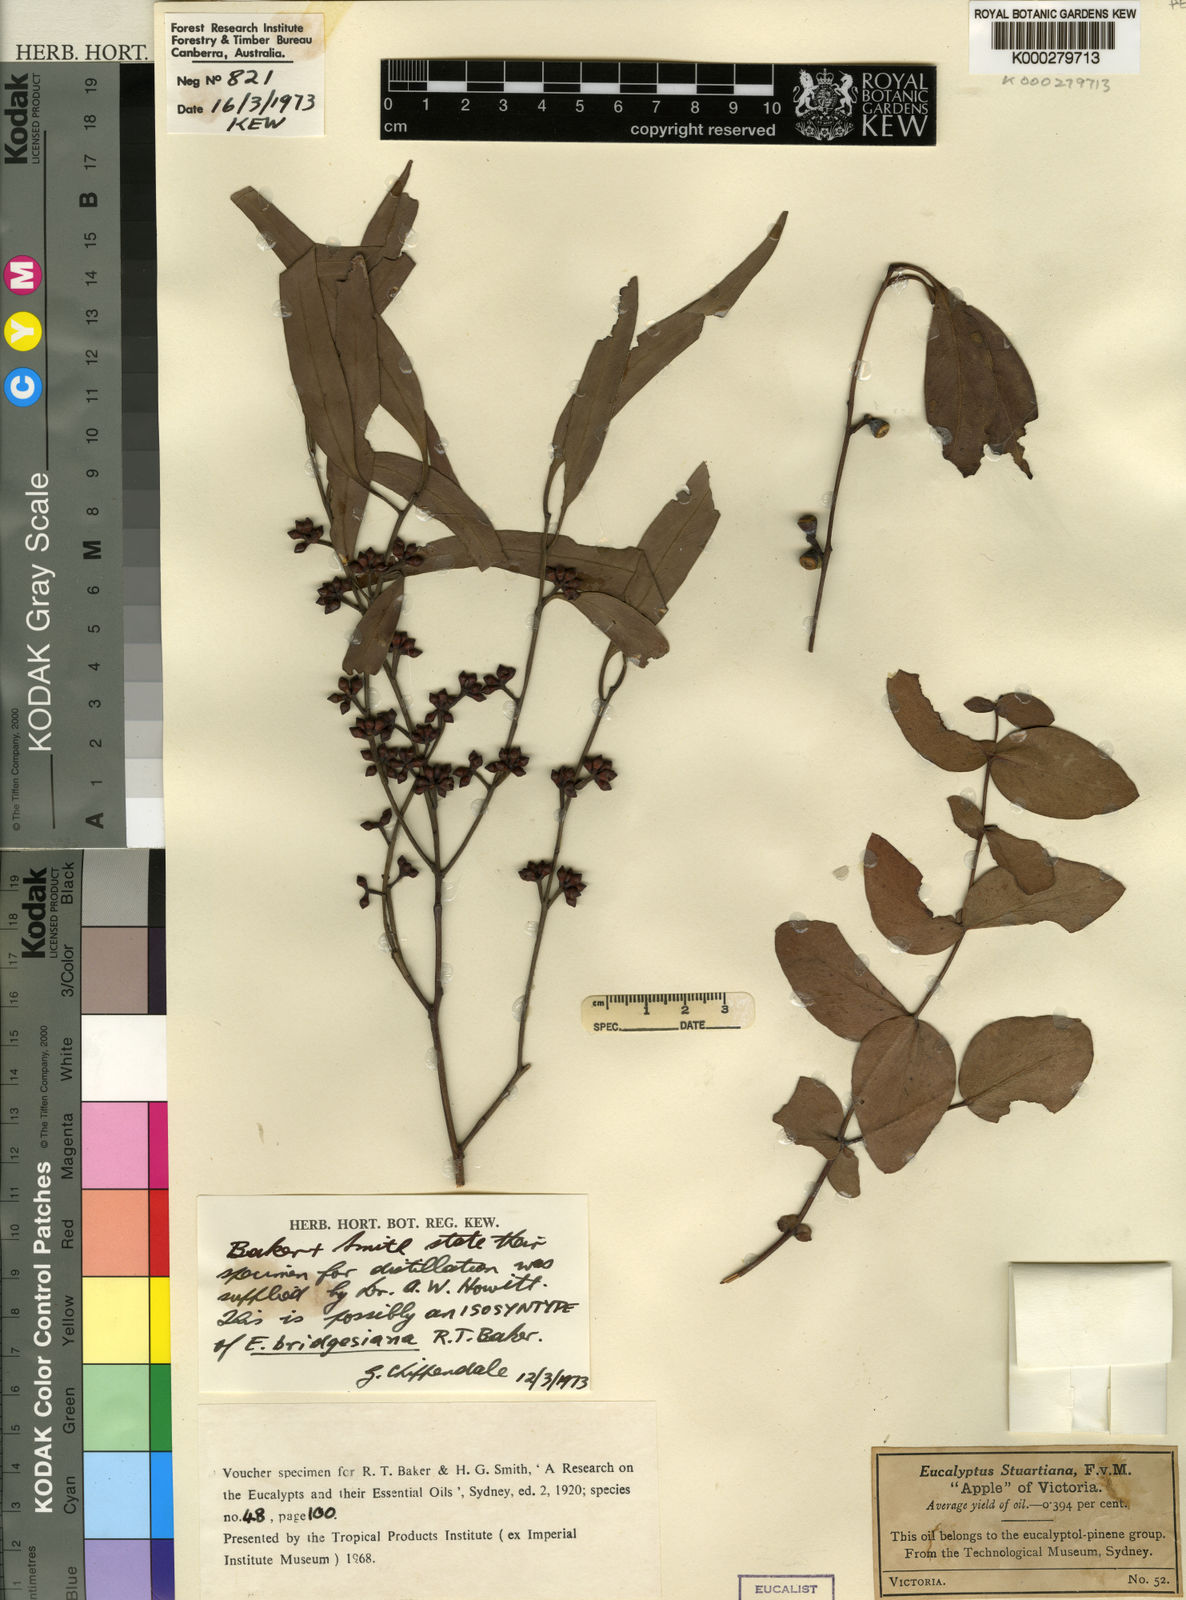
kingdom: Plantae
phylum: Tracheophyta
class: Magnoliopsida
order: Myrtales
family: Myrtaceae
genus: Eucalyptus
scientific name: Eucalyptus bridgesiana
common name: Applebox
